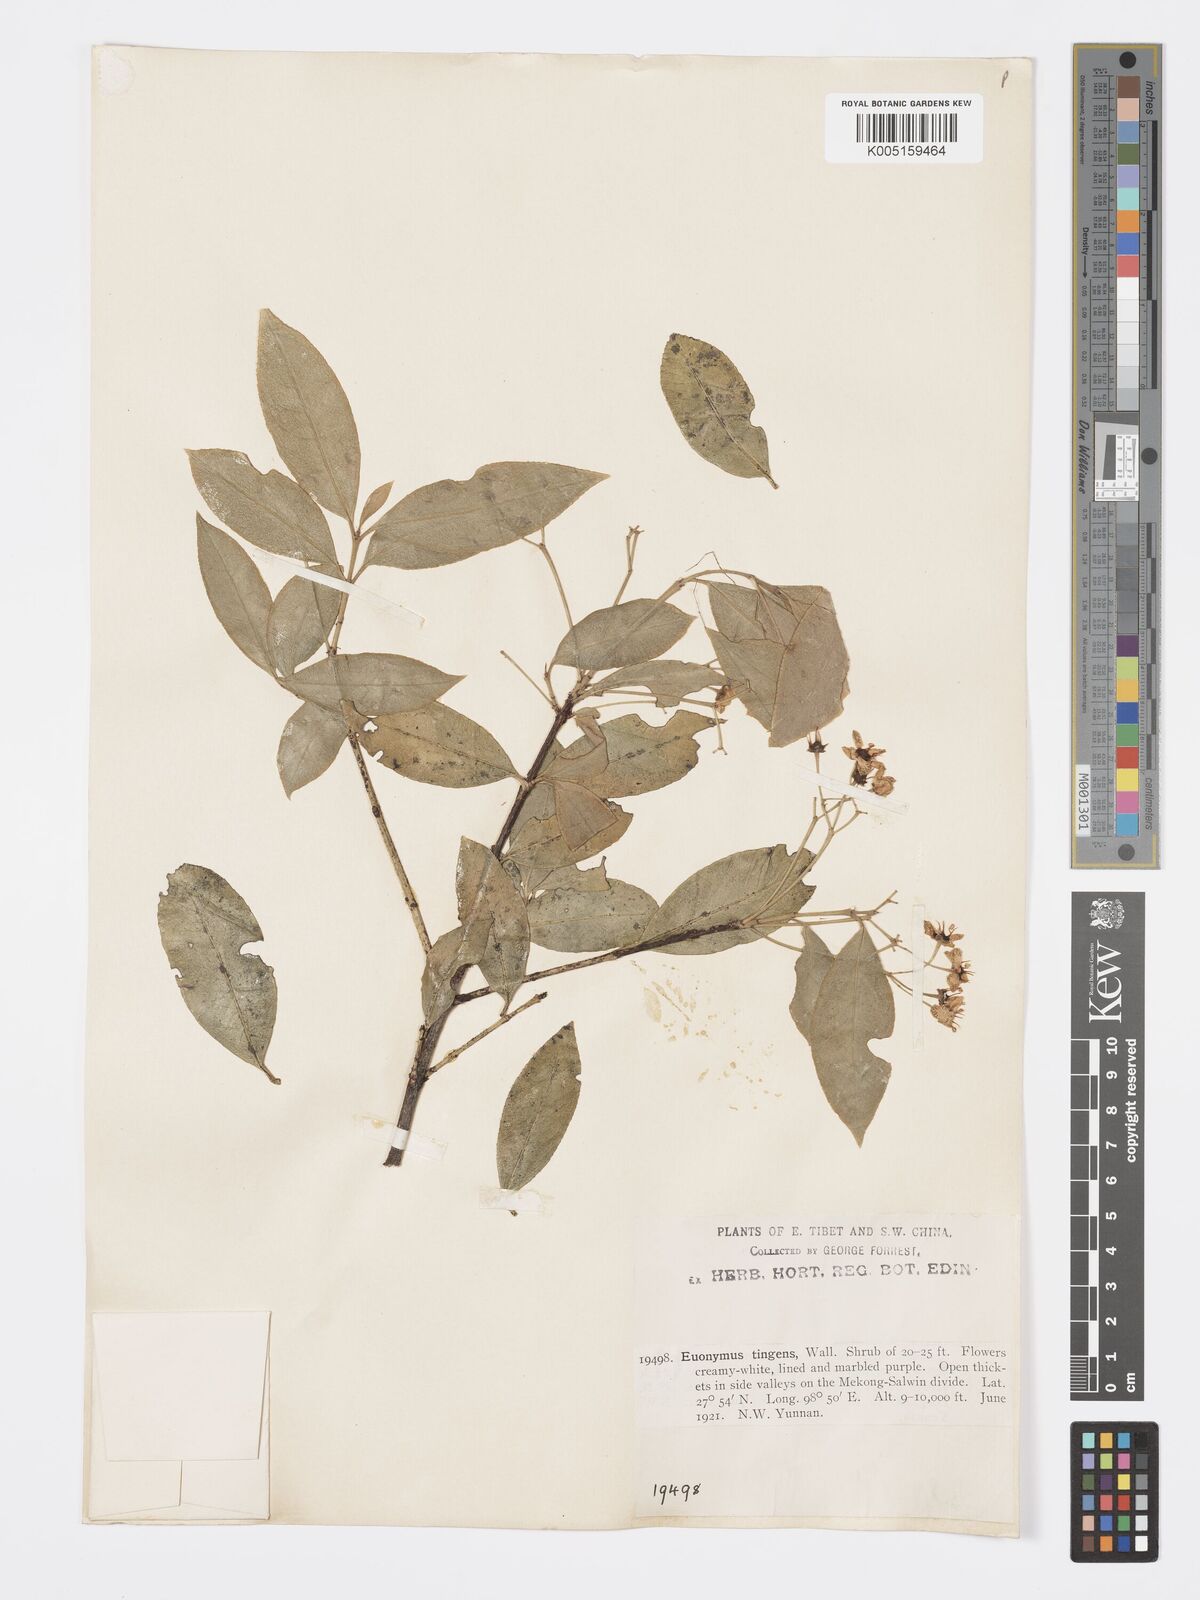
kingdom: Plantae
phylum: Tracheophyta
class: Magnoliopsida
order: Celastrales
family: Celastraceae
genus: Euonymus
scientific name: Euonymus tingens
